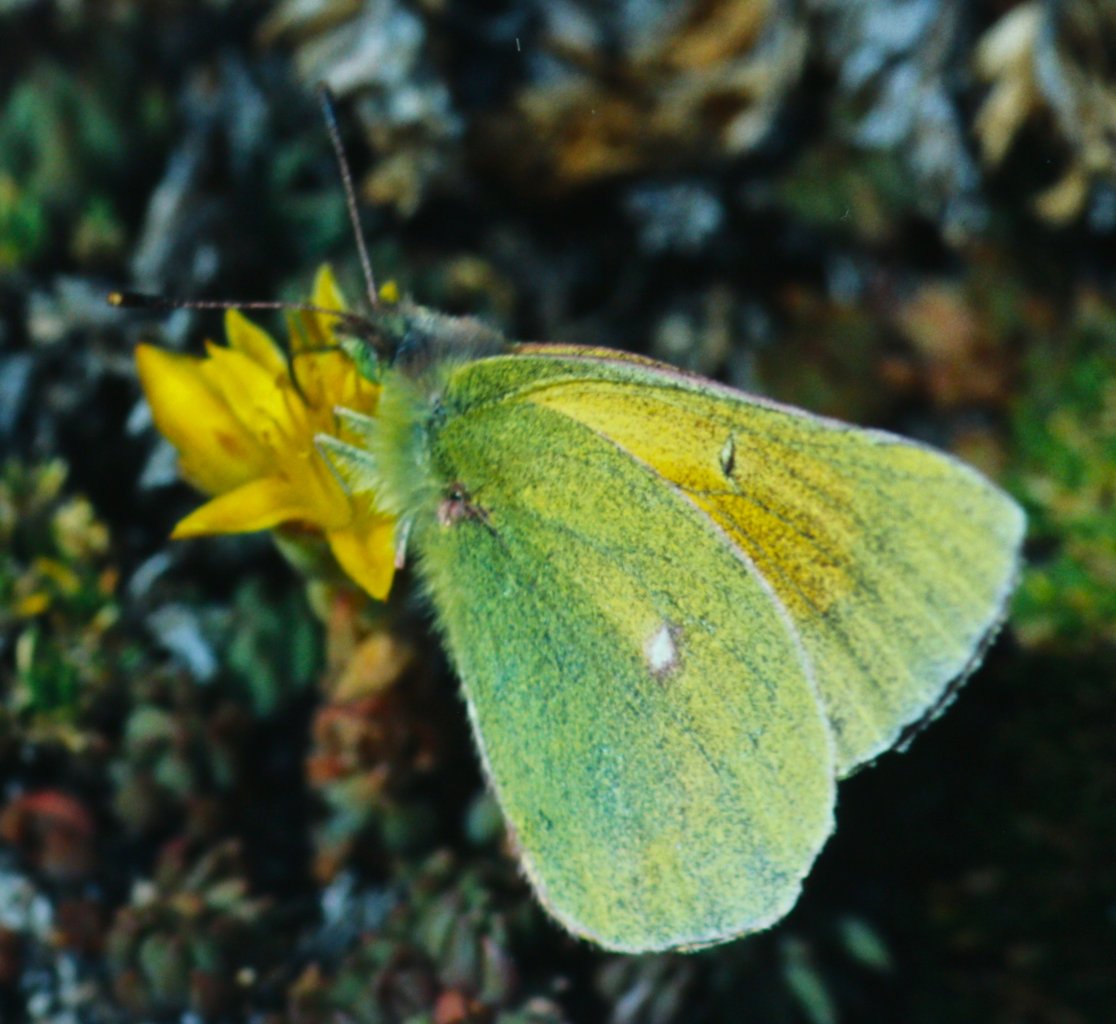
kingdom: Animalia
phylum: Arthropoda
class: Insecta
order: Lepidoptera
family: Pieridae
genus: Colias
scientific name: Colias meadii
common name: Mead's Sulphur
